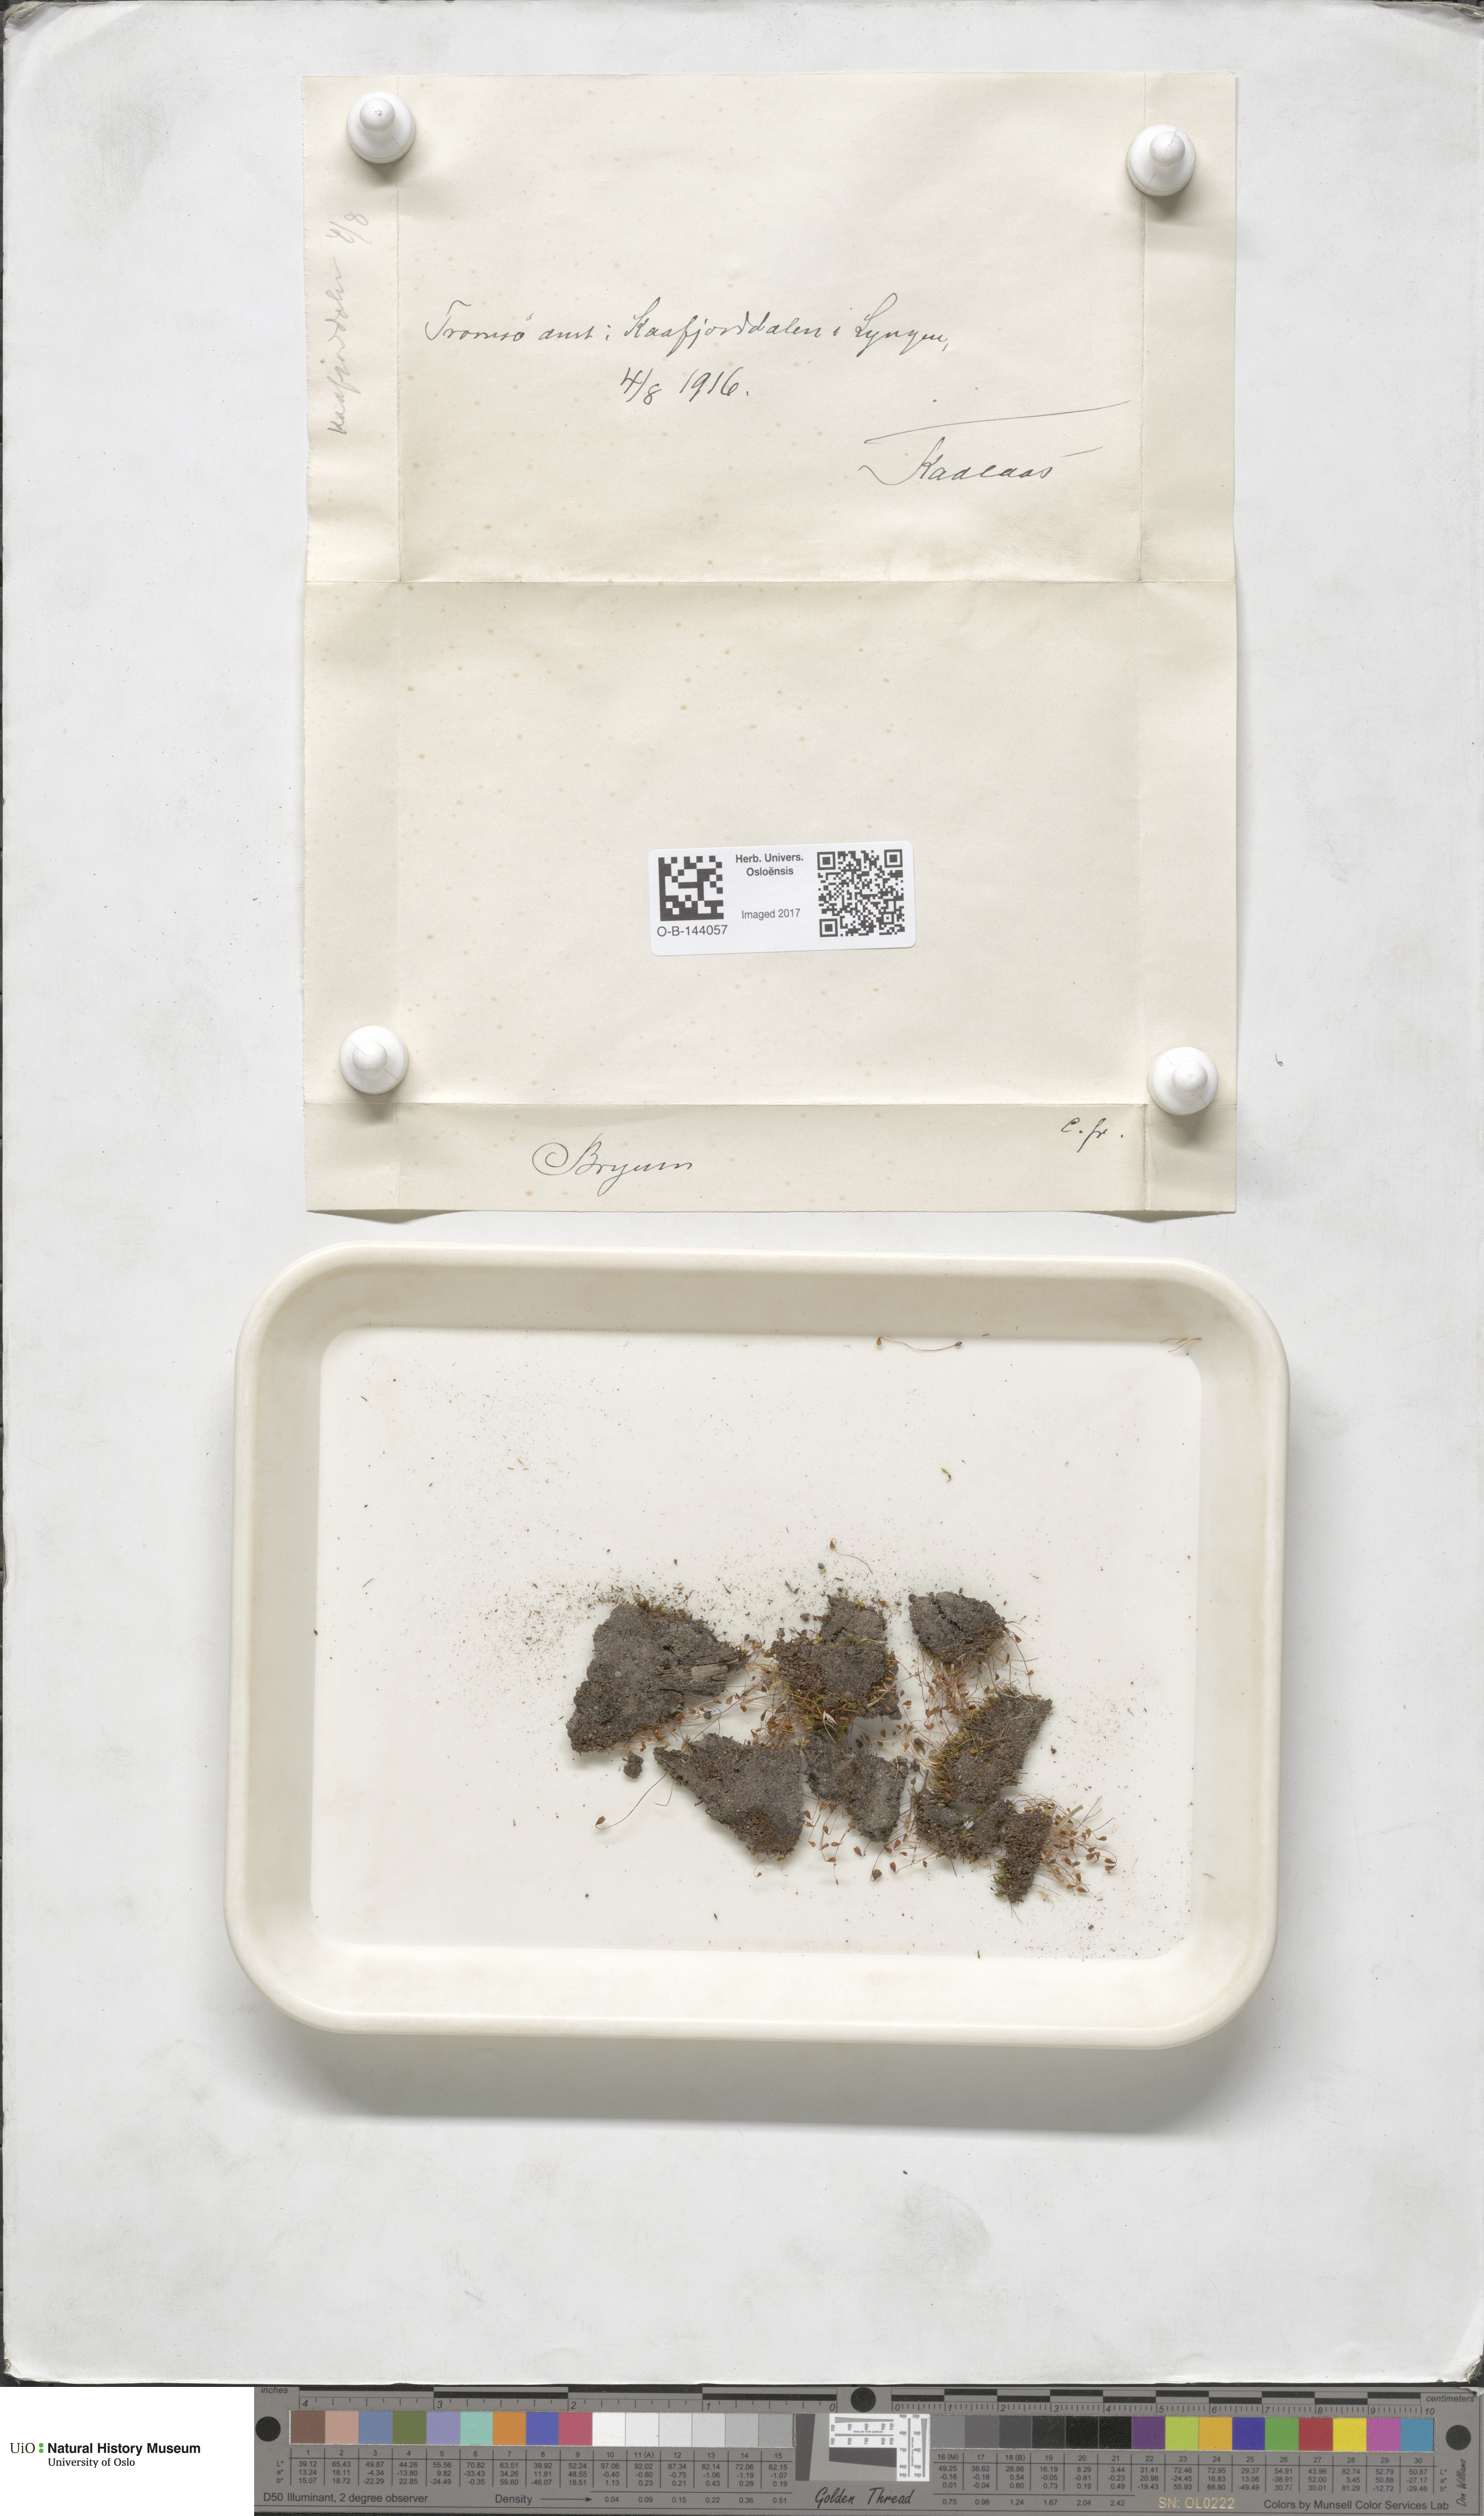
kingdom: Plantae
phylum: Bryophyta
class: Bryopsida
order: Bryales
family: Bryaceae
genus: Bryum
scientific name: Bryum
